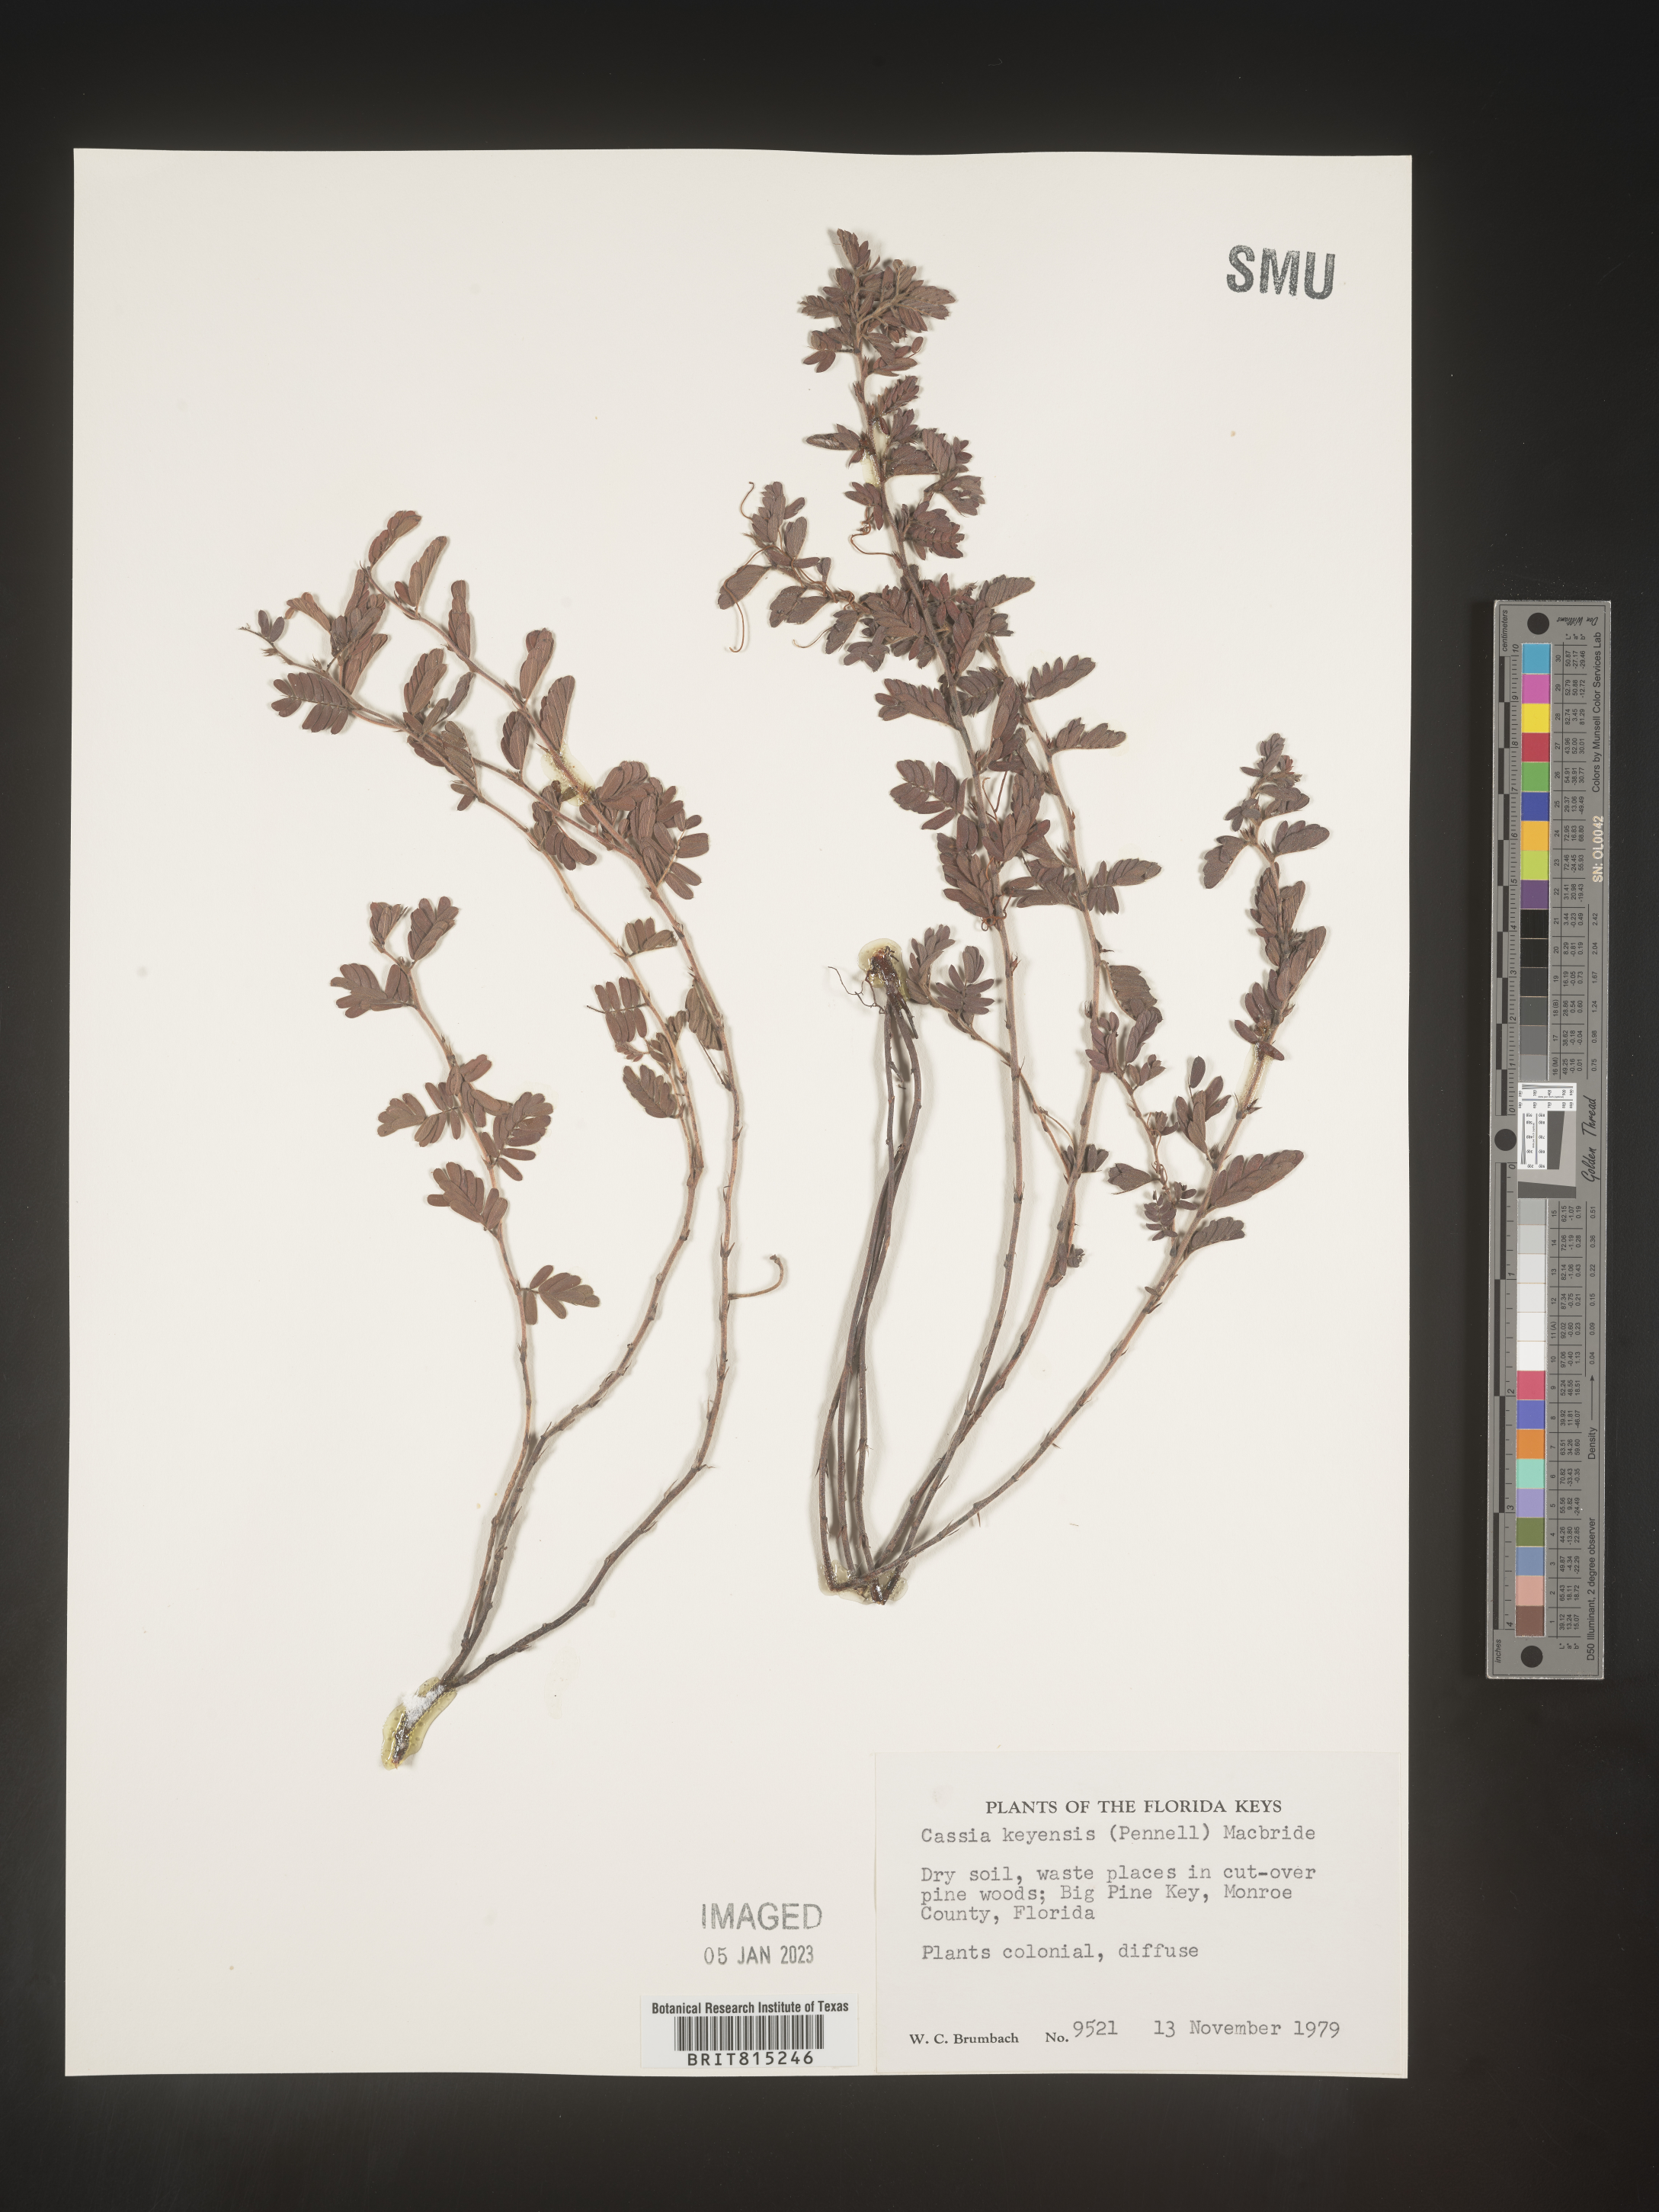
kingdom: Plantae
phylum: Tracheophyta
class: Magnoliopsida
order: Fabales
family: Fabaceae
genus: Cassia
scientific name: Cassia
